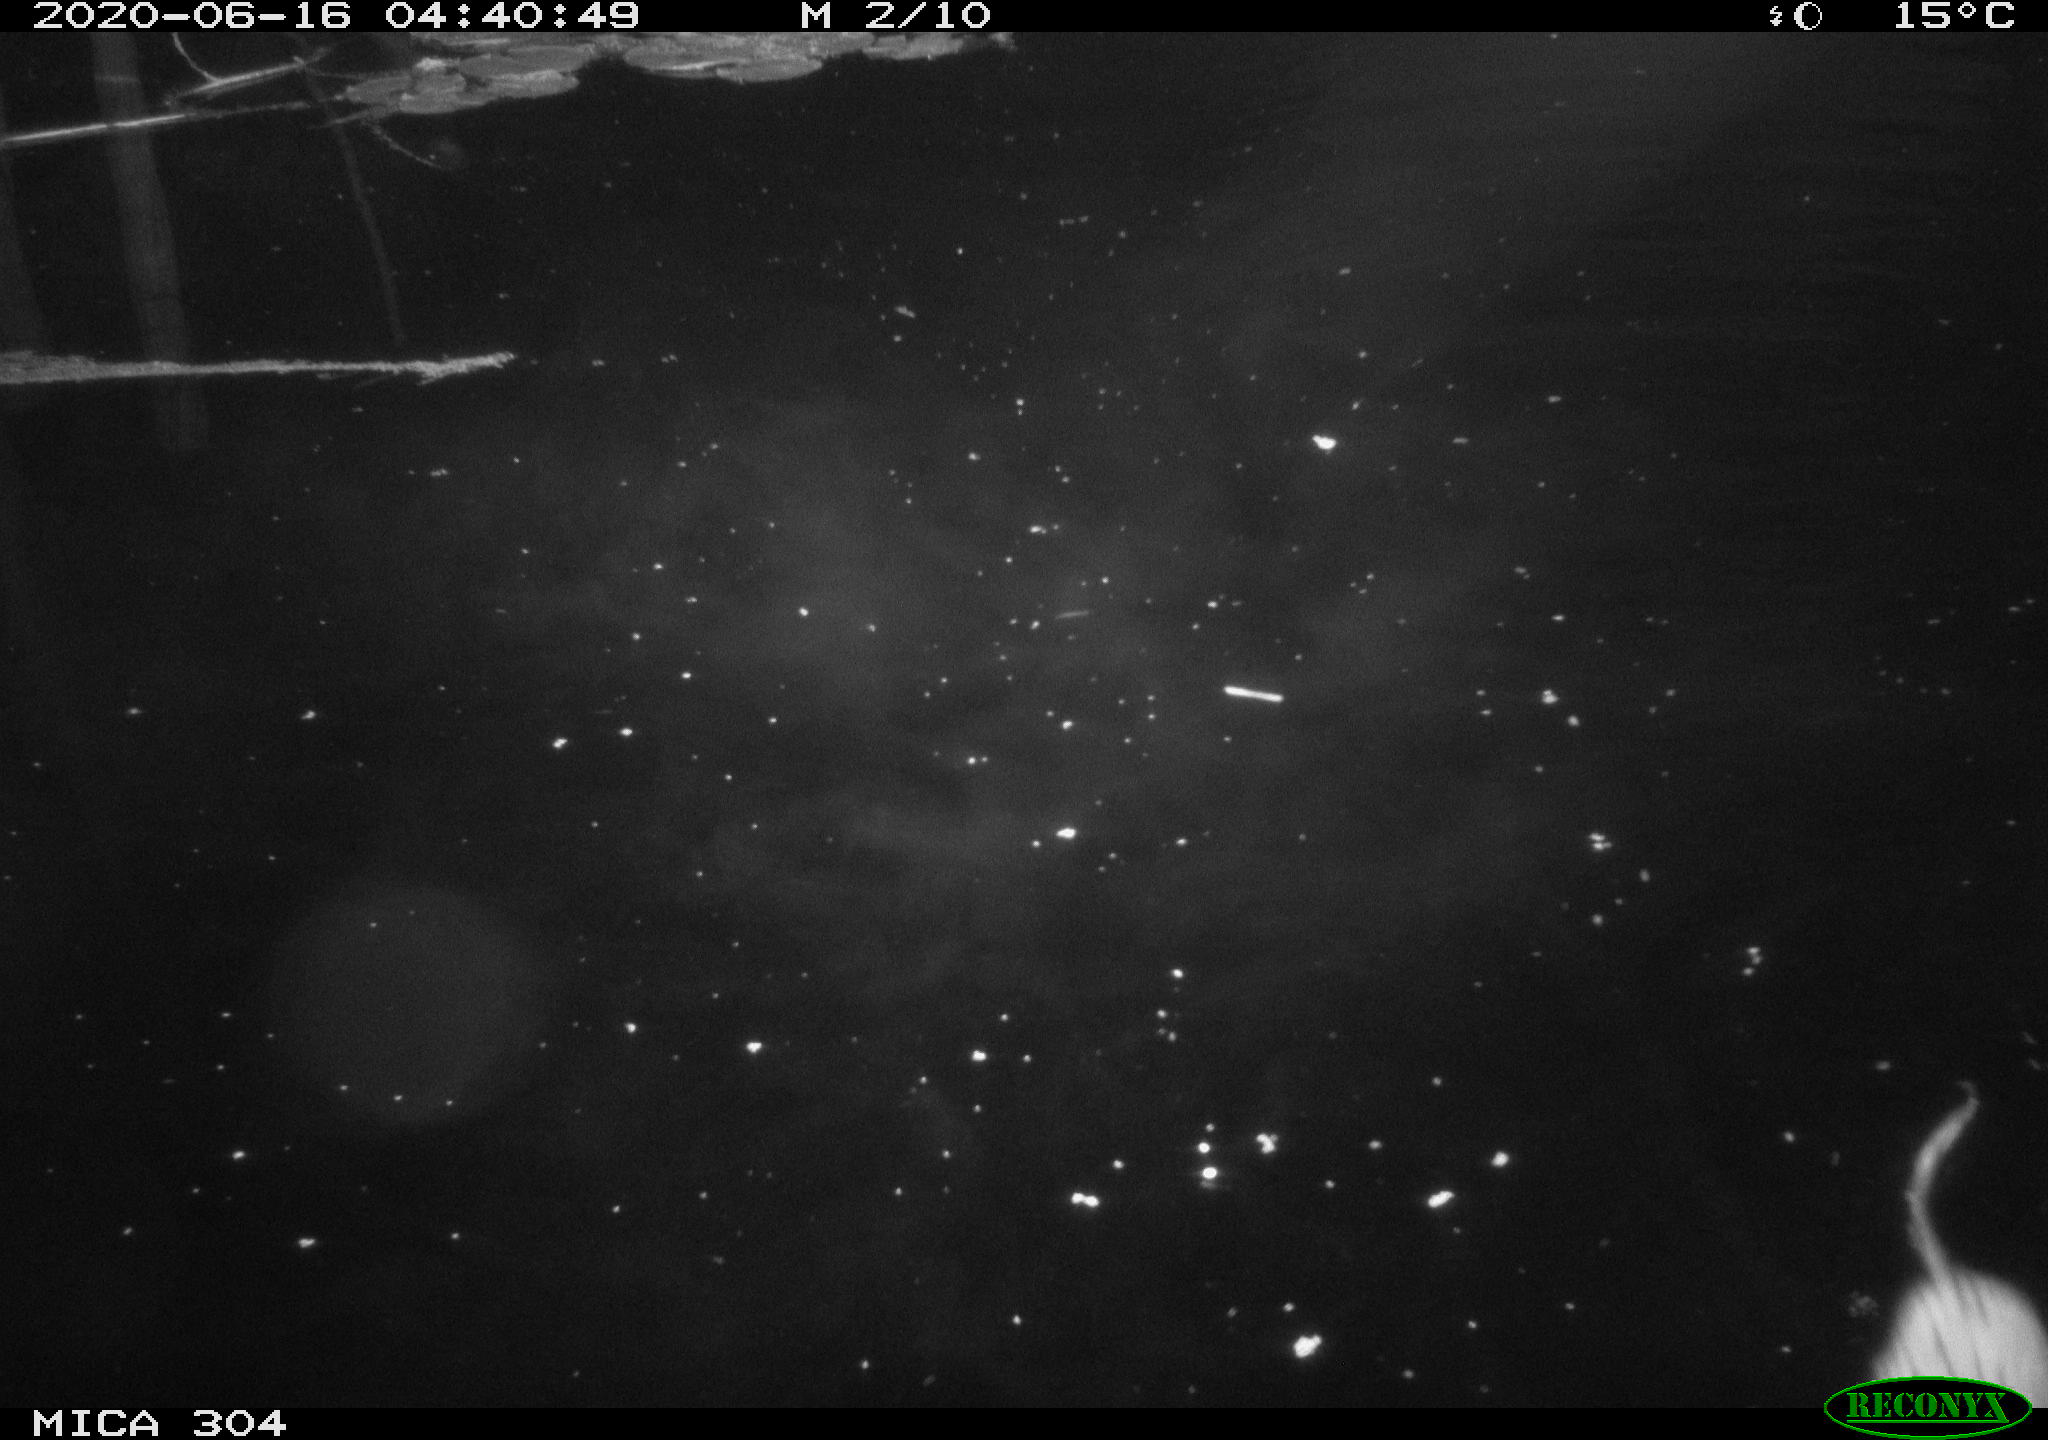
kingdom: Animalia
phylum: Chordata
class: Mammalia
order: Rodentia
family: Cricetidae
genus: Ondatra
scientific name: Ondatra zibethicus
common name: Muskrat
